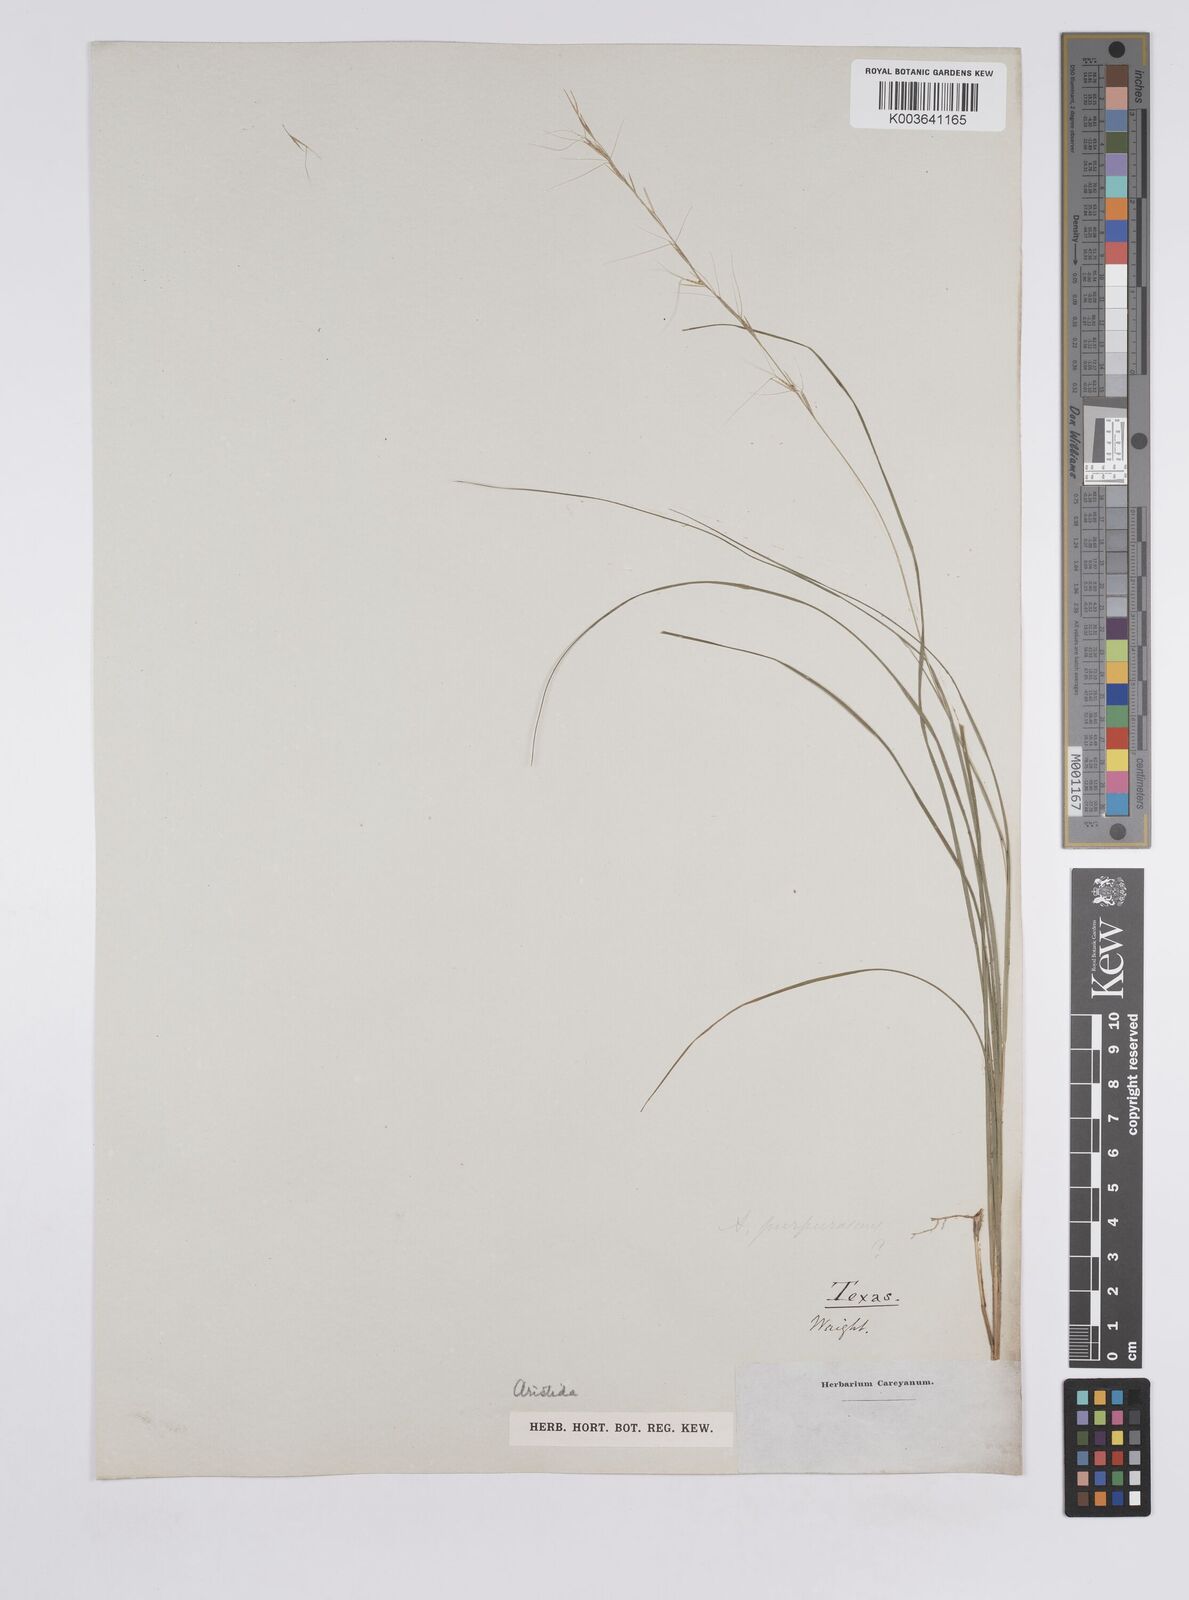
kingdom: Plantae
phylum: Tracheophyta
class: Liliopsida
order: Poales
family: Poaceae
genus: Aristida
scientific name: Aristida
